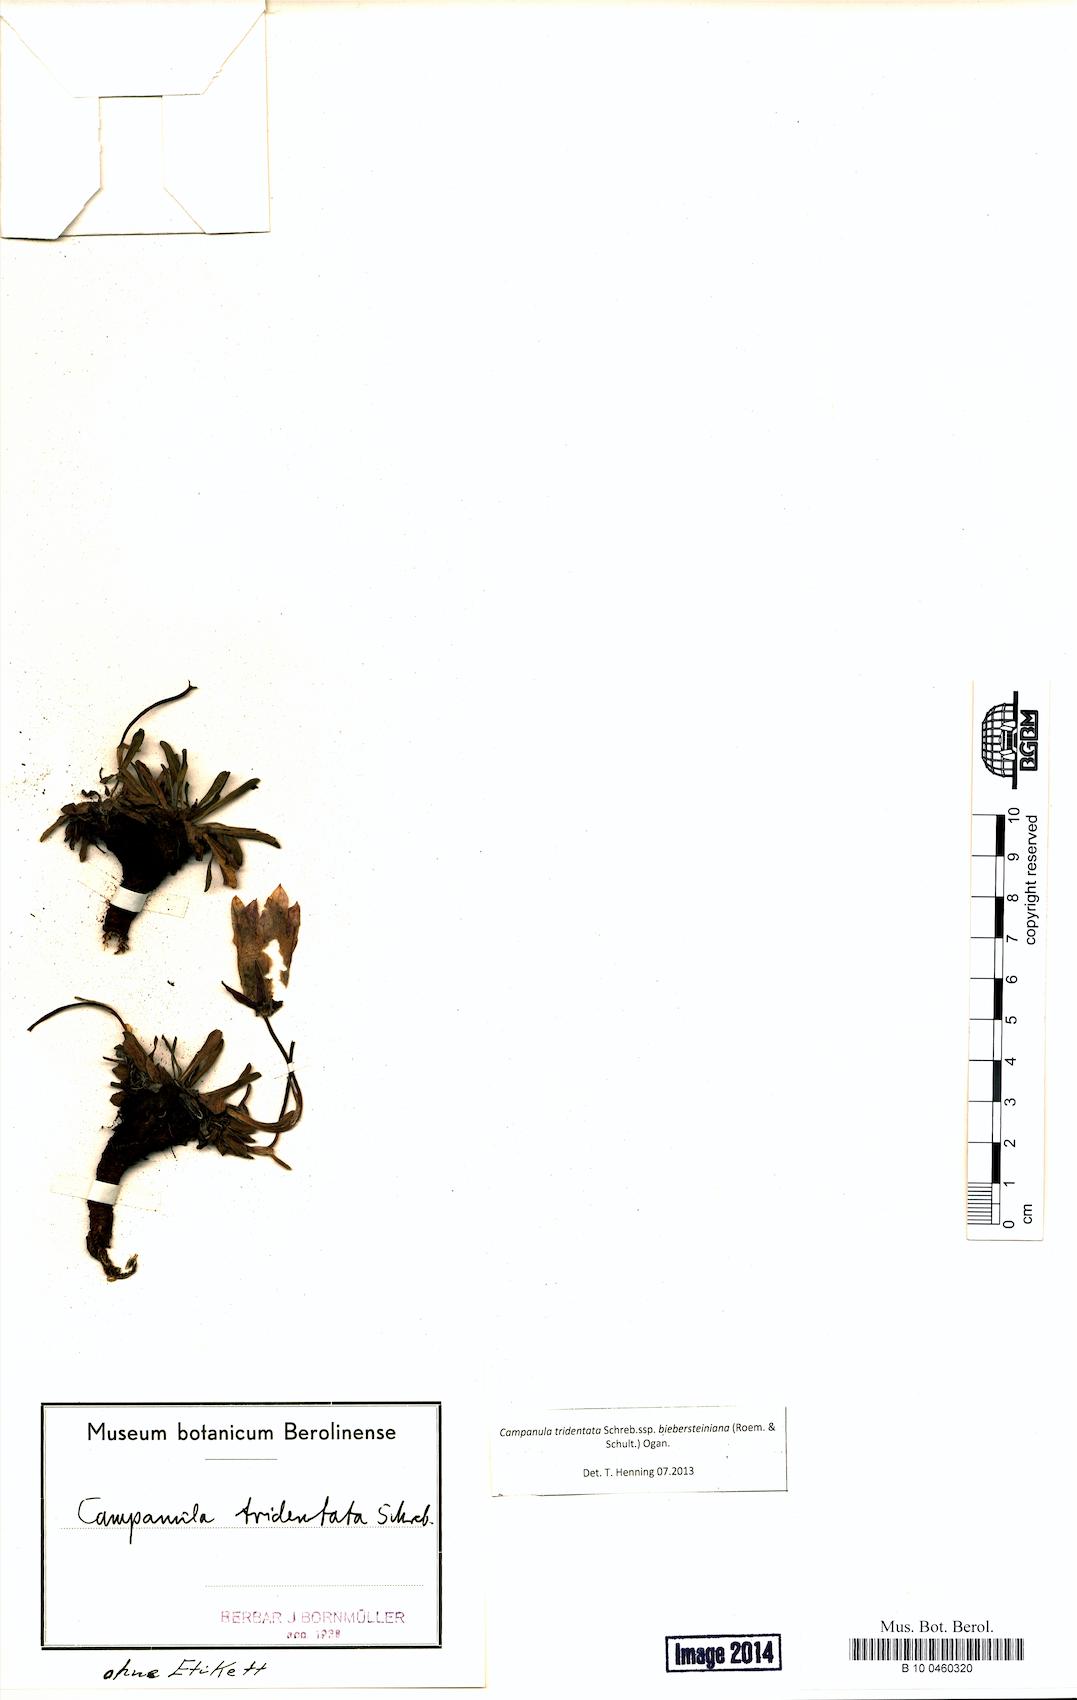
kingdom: Plantae
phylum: Tracheophyta
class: Magnoliopsida
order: Asterales
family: Campanulaceae
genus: Campanula
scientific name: Campanula tridentata
